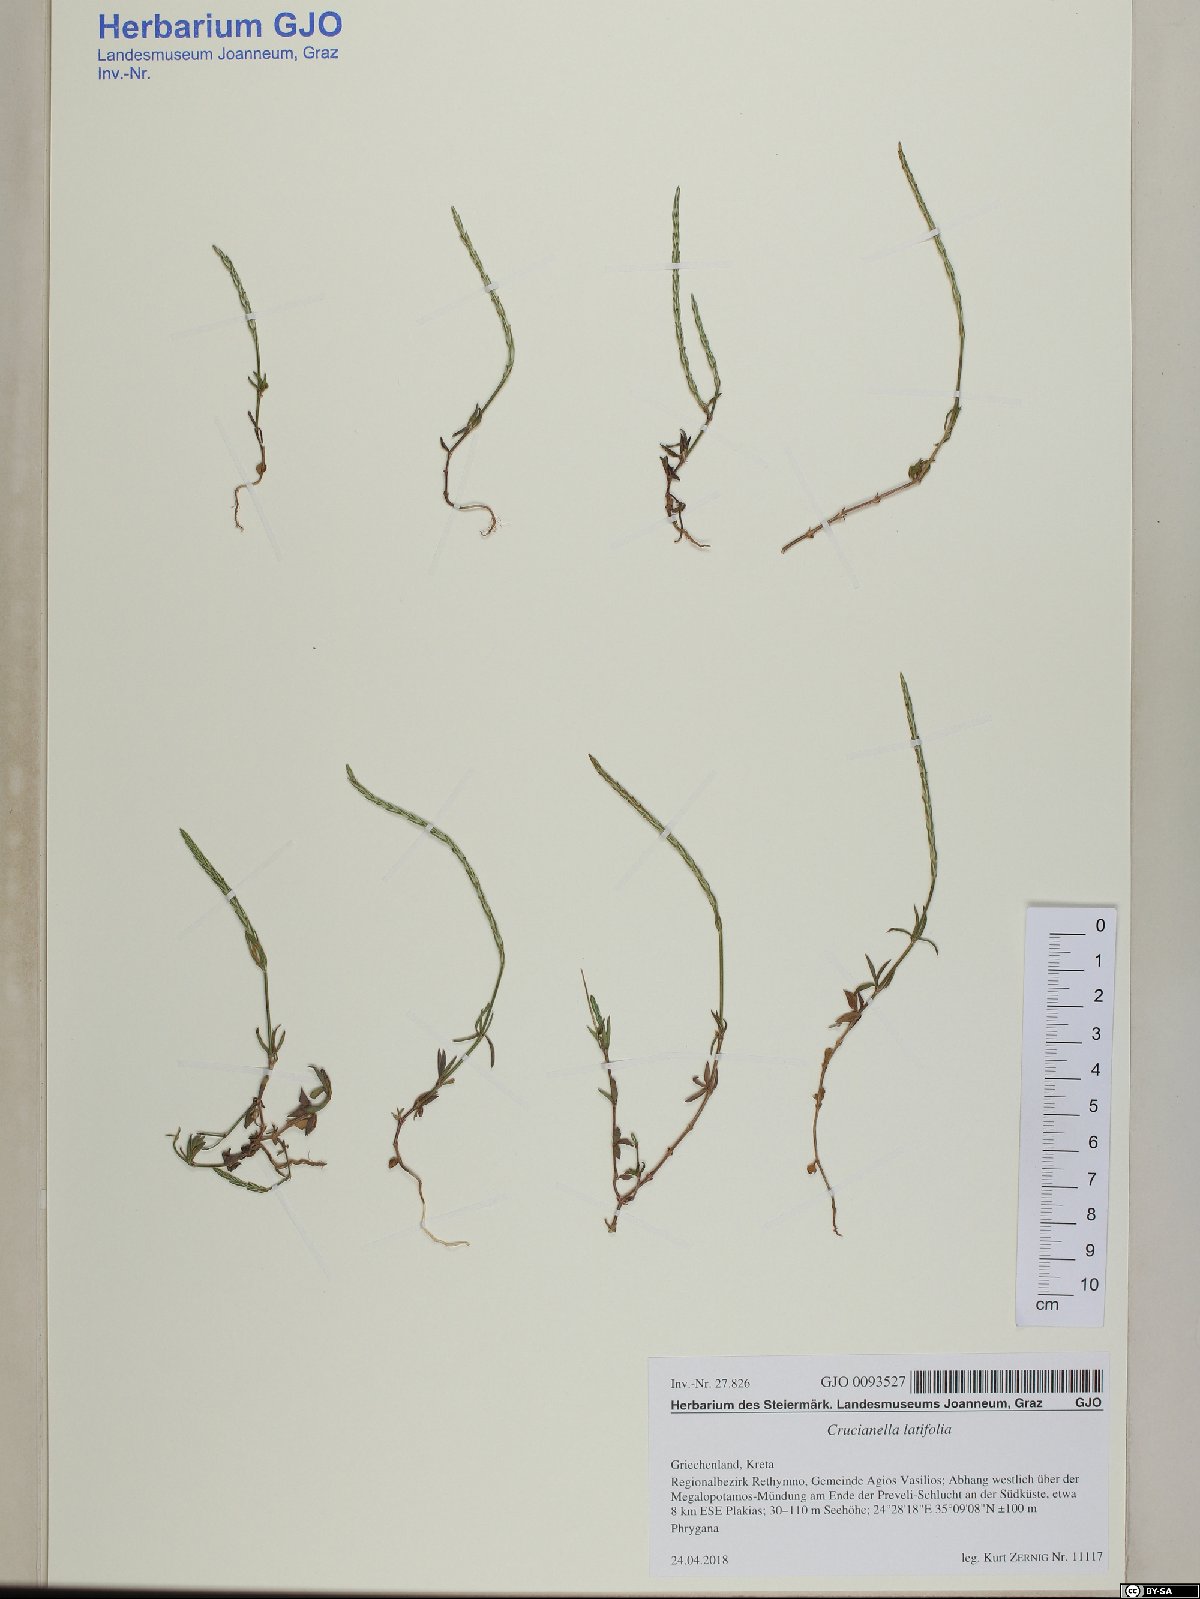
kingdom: Plantae
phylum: Tracheophyta
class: Magnoliopsida
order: Gentianales
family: Rubiaceae
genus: Crucianella
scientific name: Crucianella latifolia
